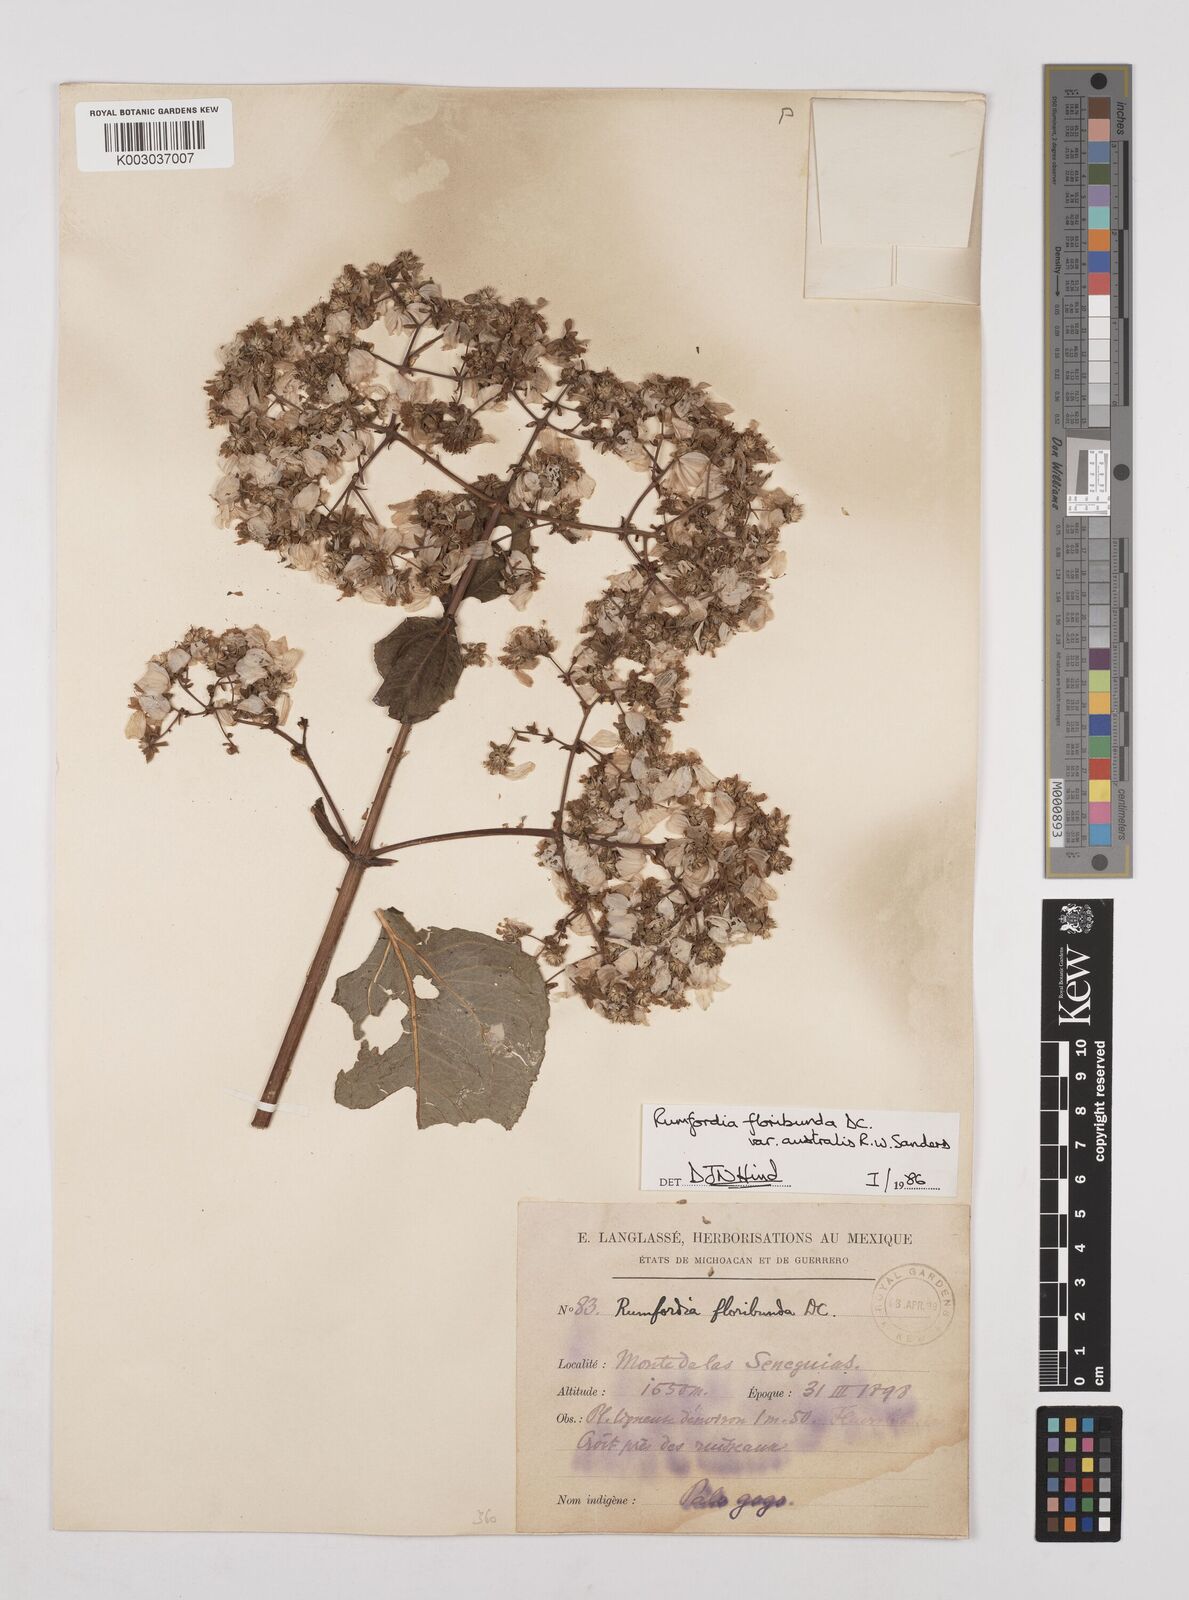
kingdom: Plantae
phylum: Tracheophyta
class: Magnoliopsida
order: Asterales
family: Asteraceae
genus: Rumfordia
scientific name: Rumfordia floribunda
